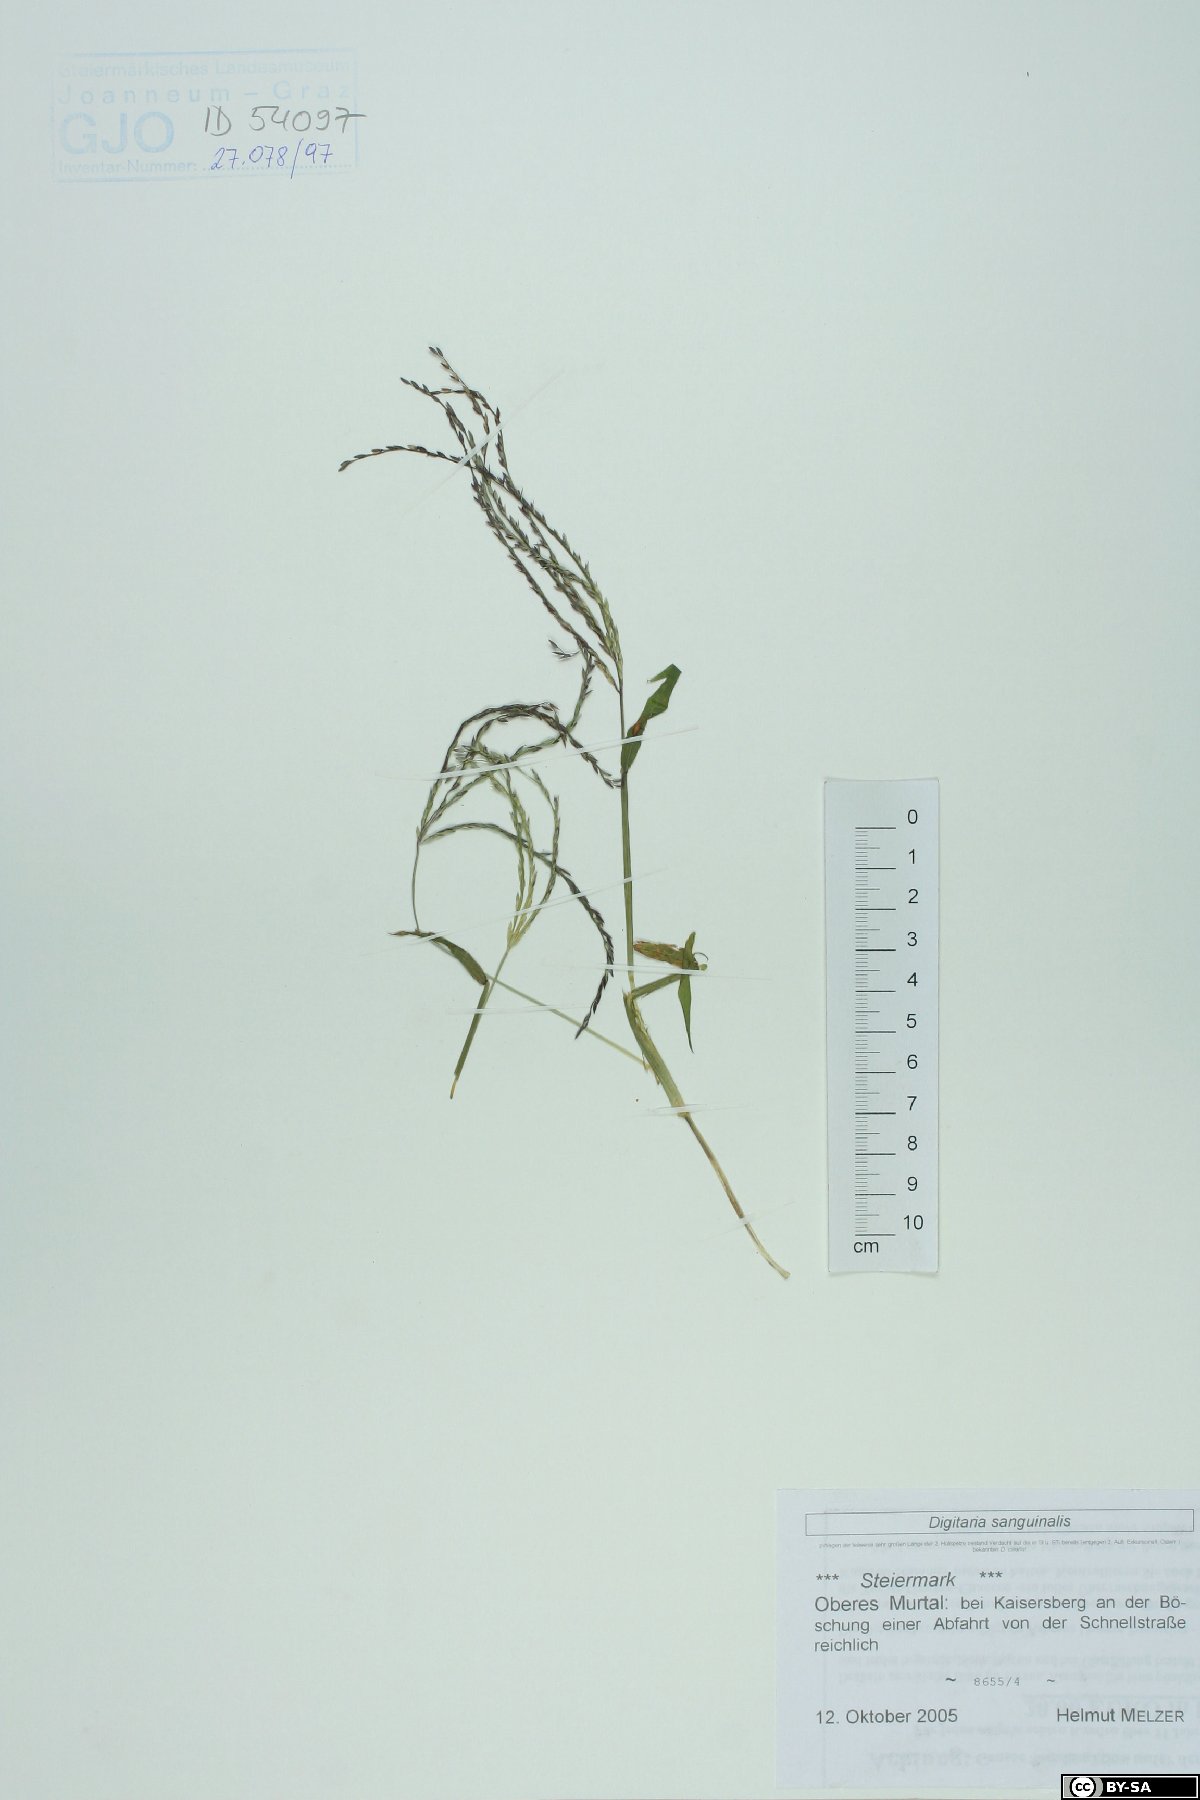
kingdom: Plantae
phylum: Tracheophyta
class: Liliopsida
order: Poales
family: Poaceae
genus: Digitaria
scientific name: Digitaria sanguinalis
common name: Hairy crabgrass
